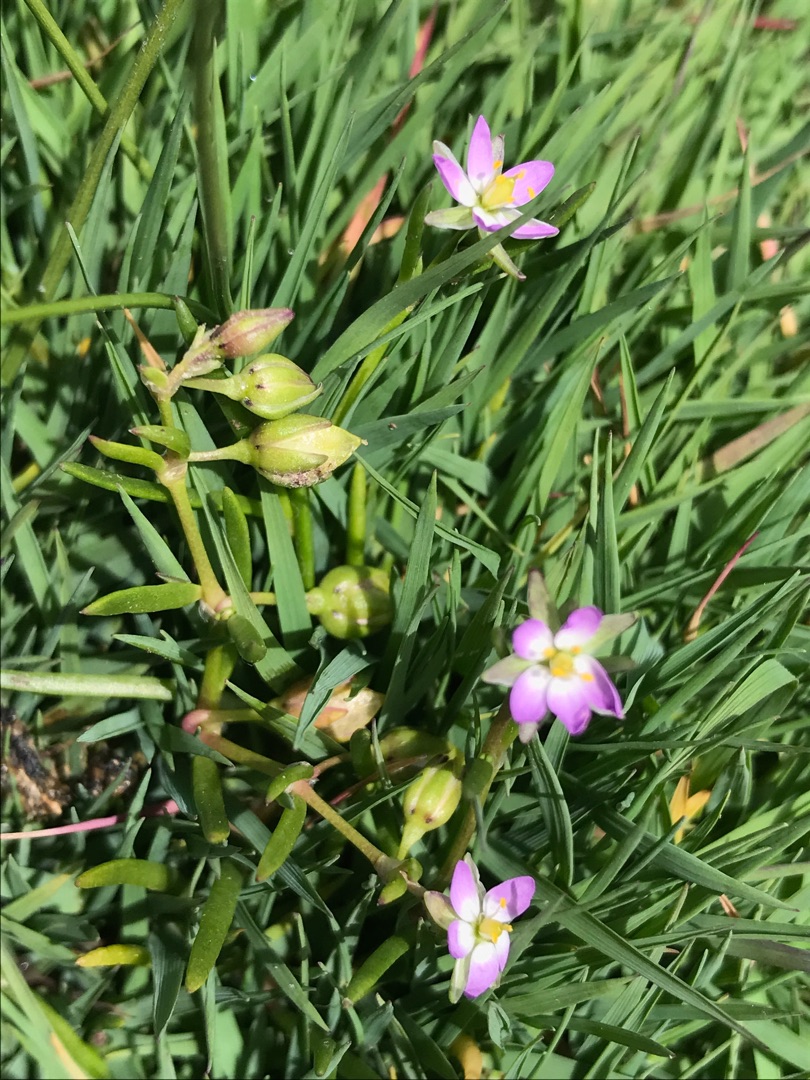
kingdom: Plantae
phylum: Tracheophyta
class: Magnoliopsida
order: Caryophyllales
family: Caryophyllaceae
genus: Spergularia
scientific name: Spergularia media
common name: Vingefrøet hindeknæ
